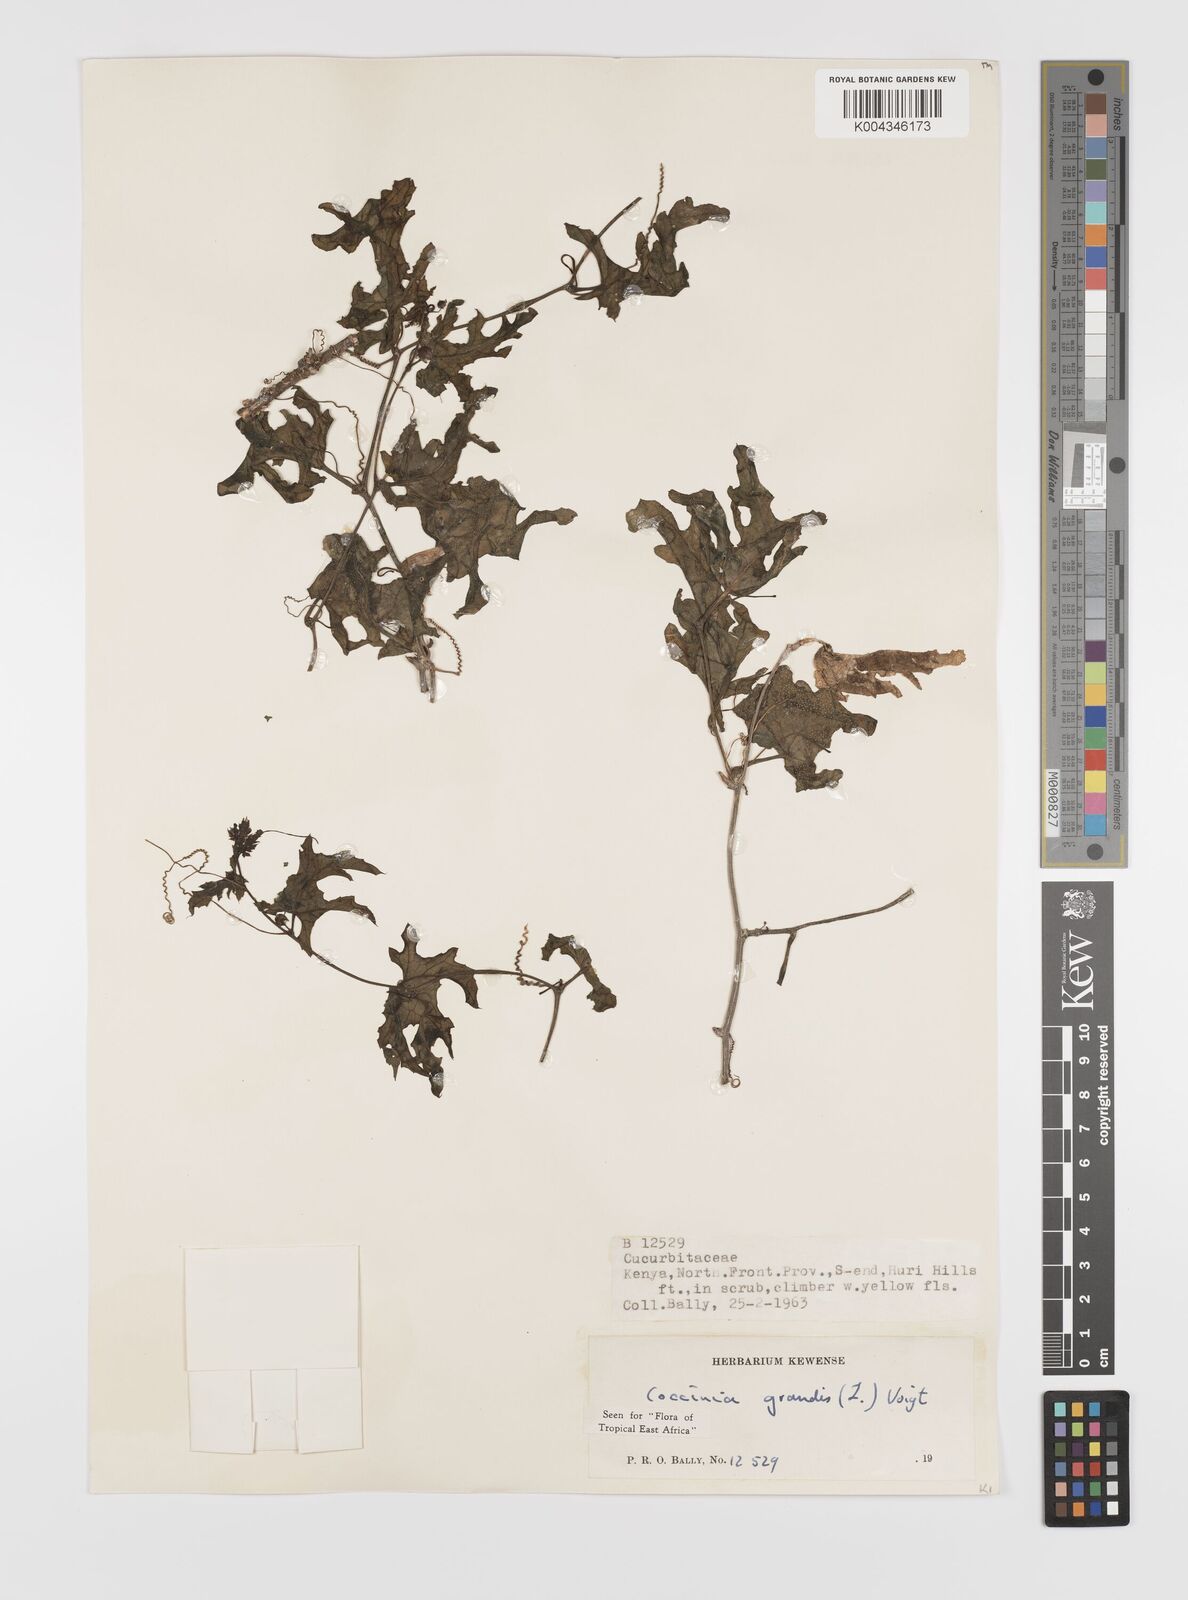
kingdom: Plantae
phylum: Tracheophyta
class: Magnoliopsida
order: Cucurbitales
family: Cucurbitaceae
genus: Coccinia
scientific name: Coccinia grandis
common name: Ivy gourd
